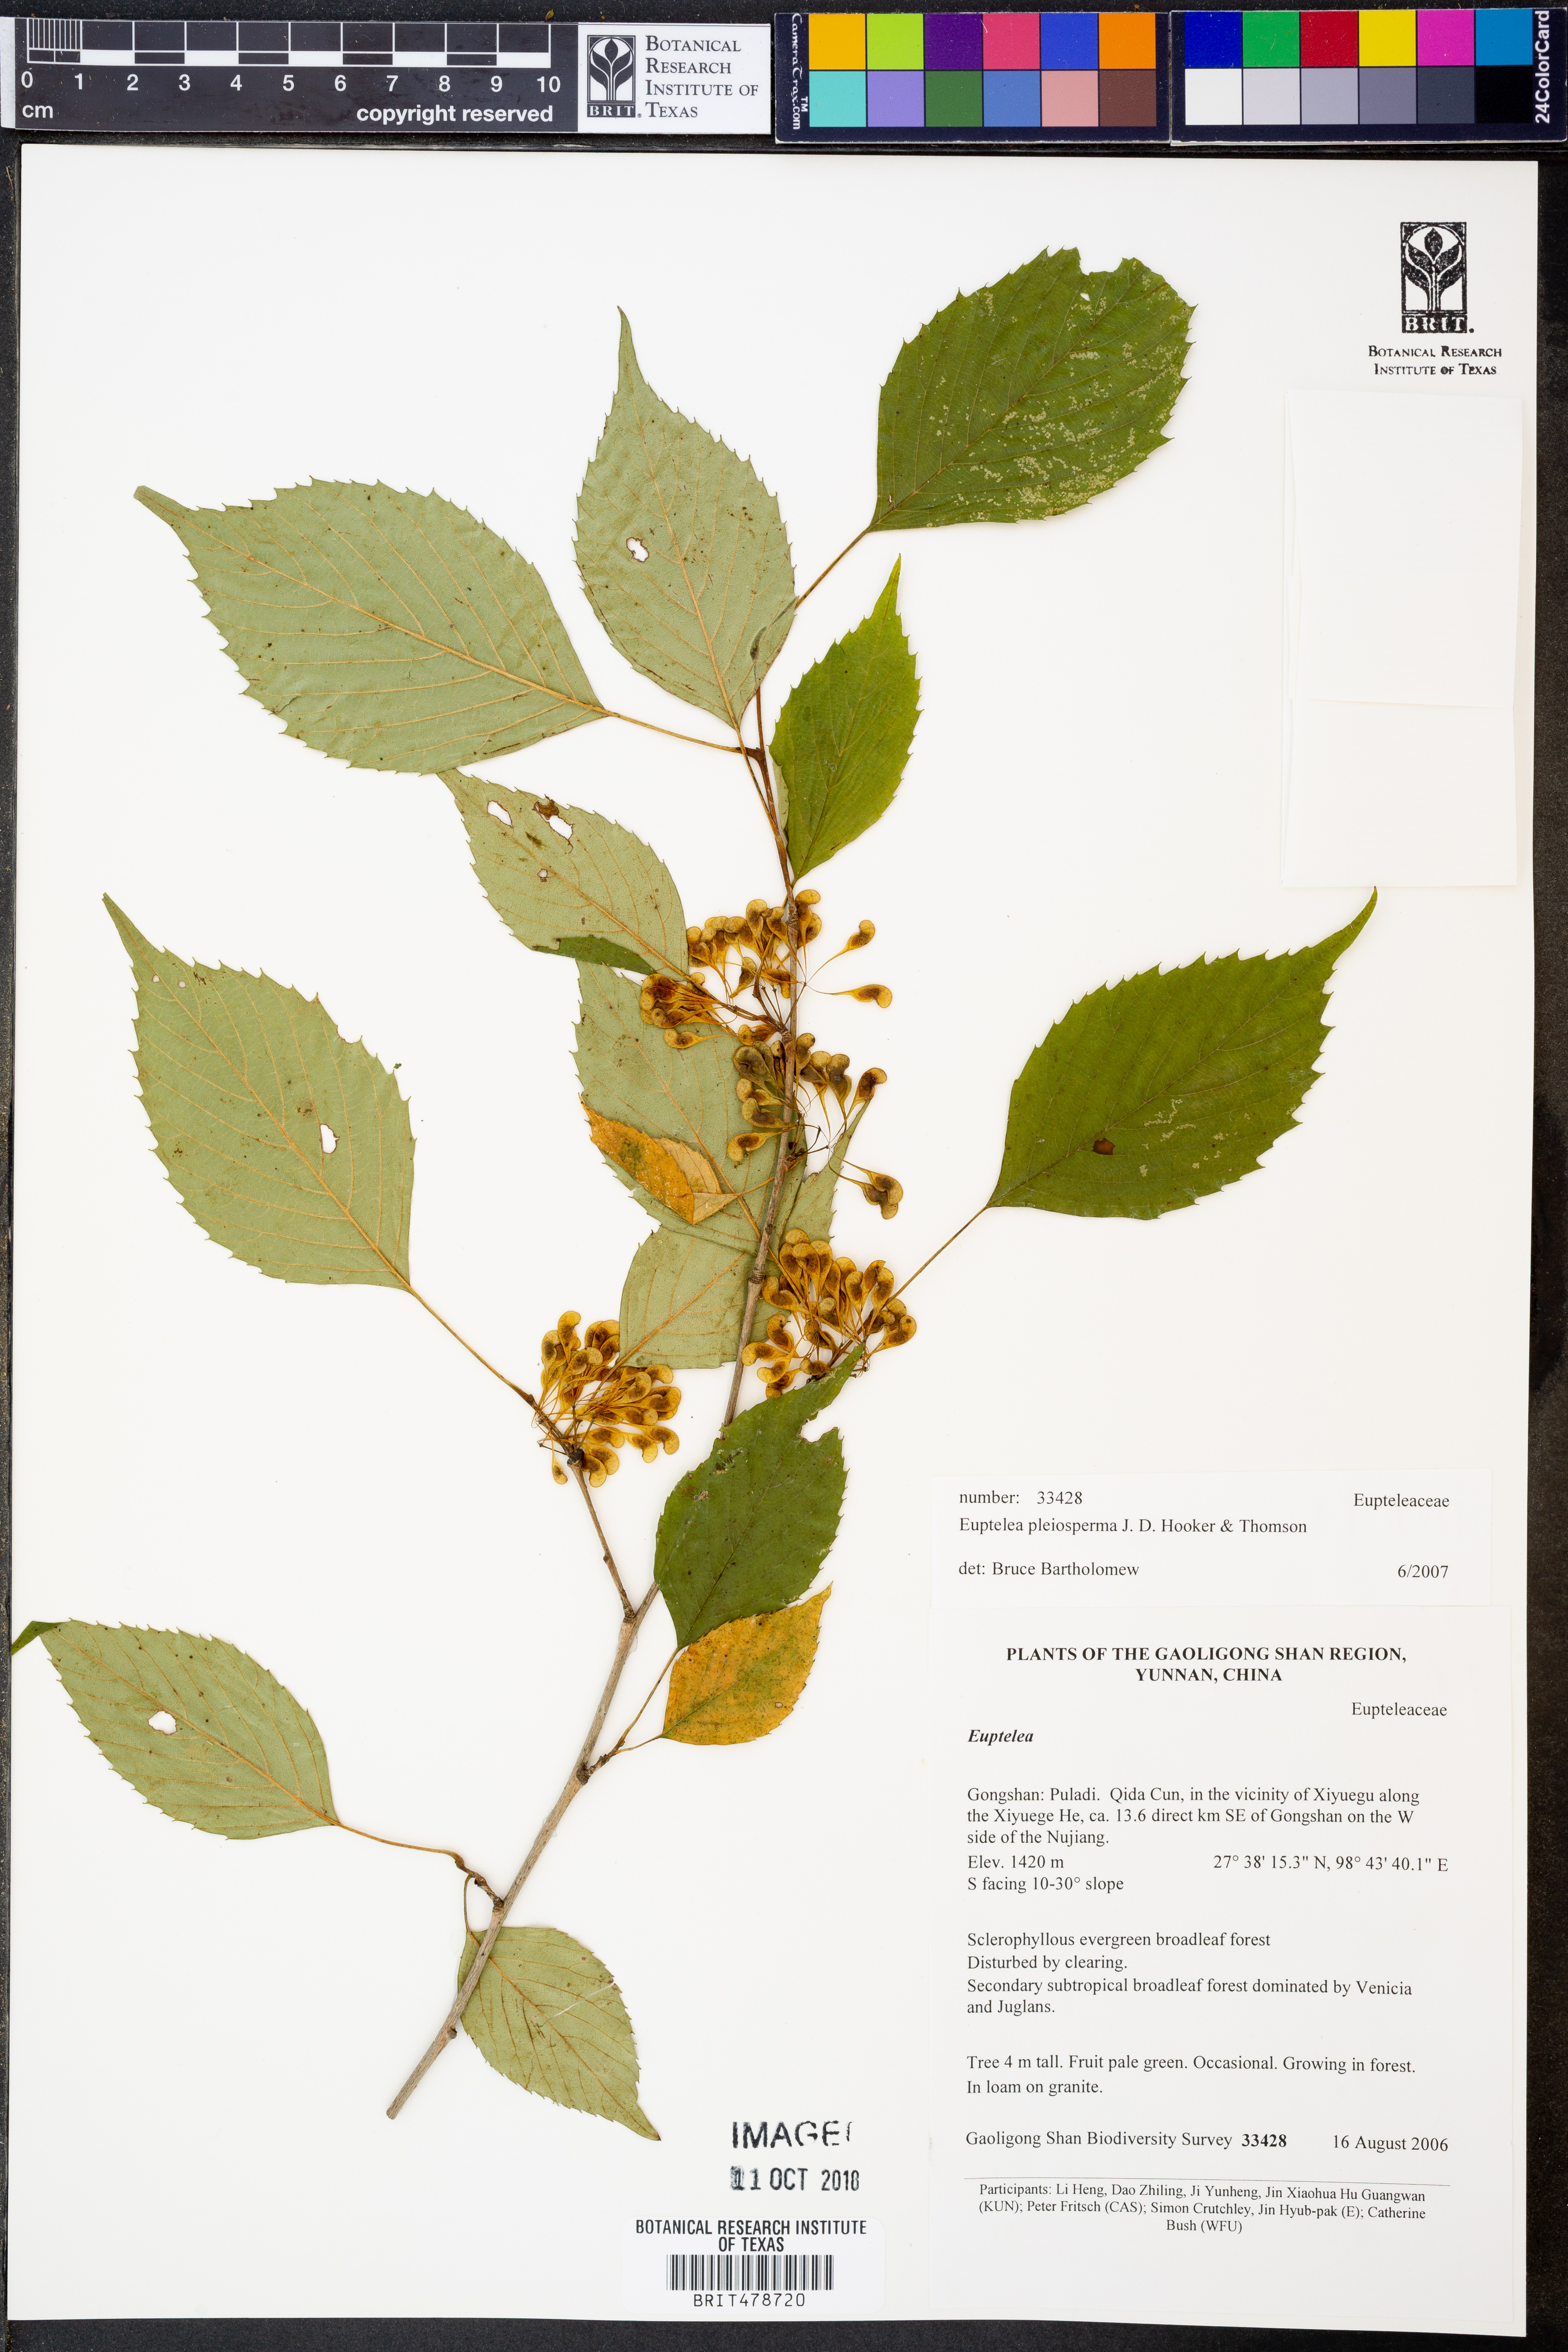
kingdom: Plantae
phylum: Tracheophyta
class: Magnoliopsida
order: Ranunculales
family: Eupteleaceae
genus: Euptelea
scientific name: Euptelea pleiosperma
